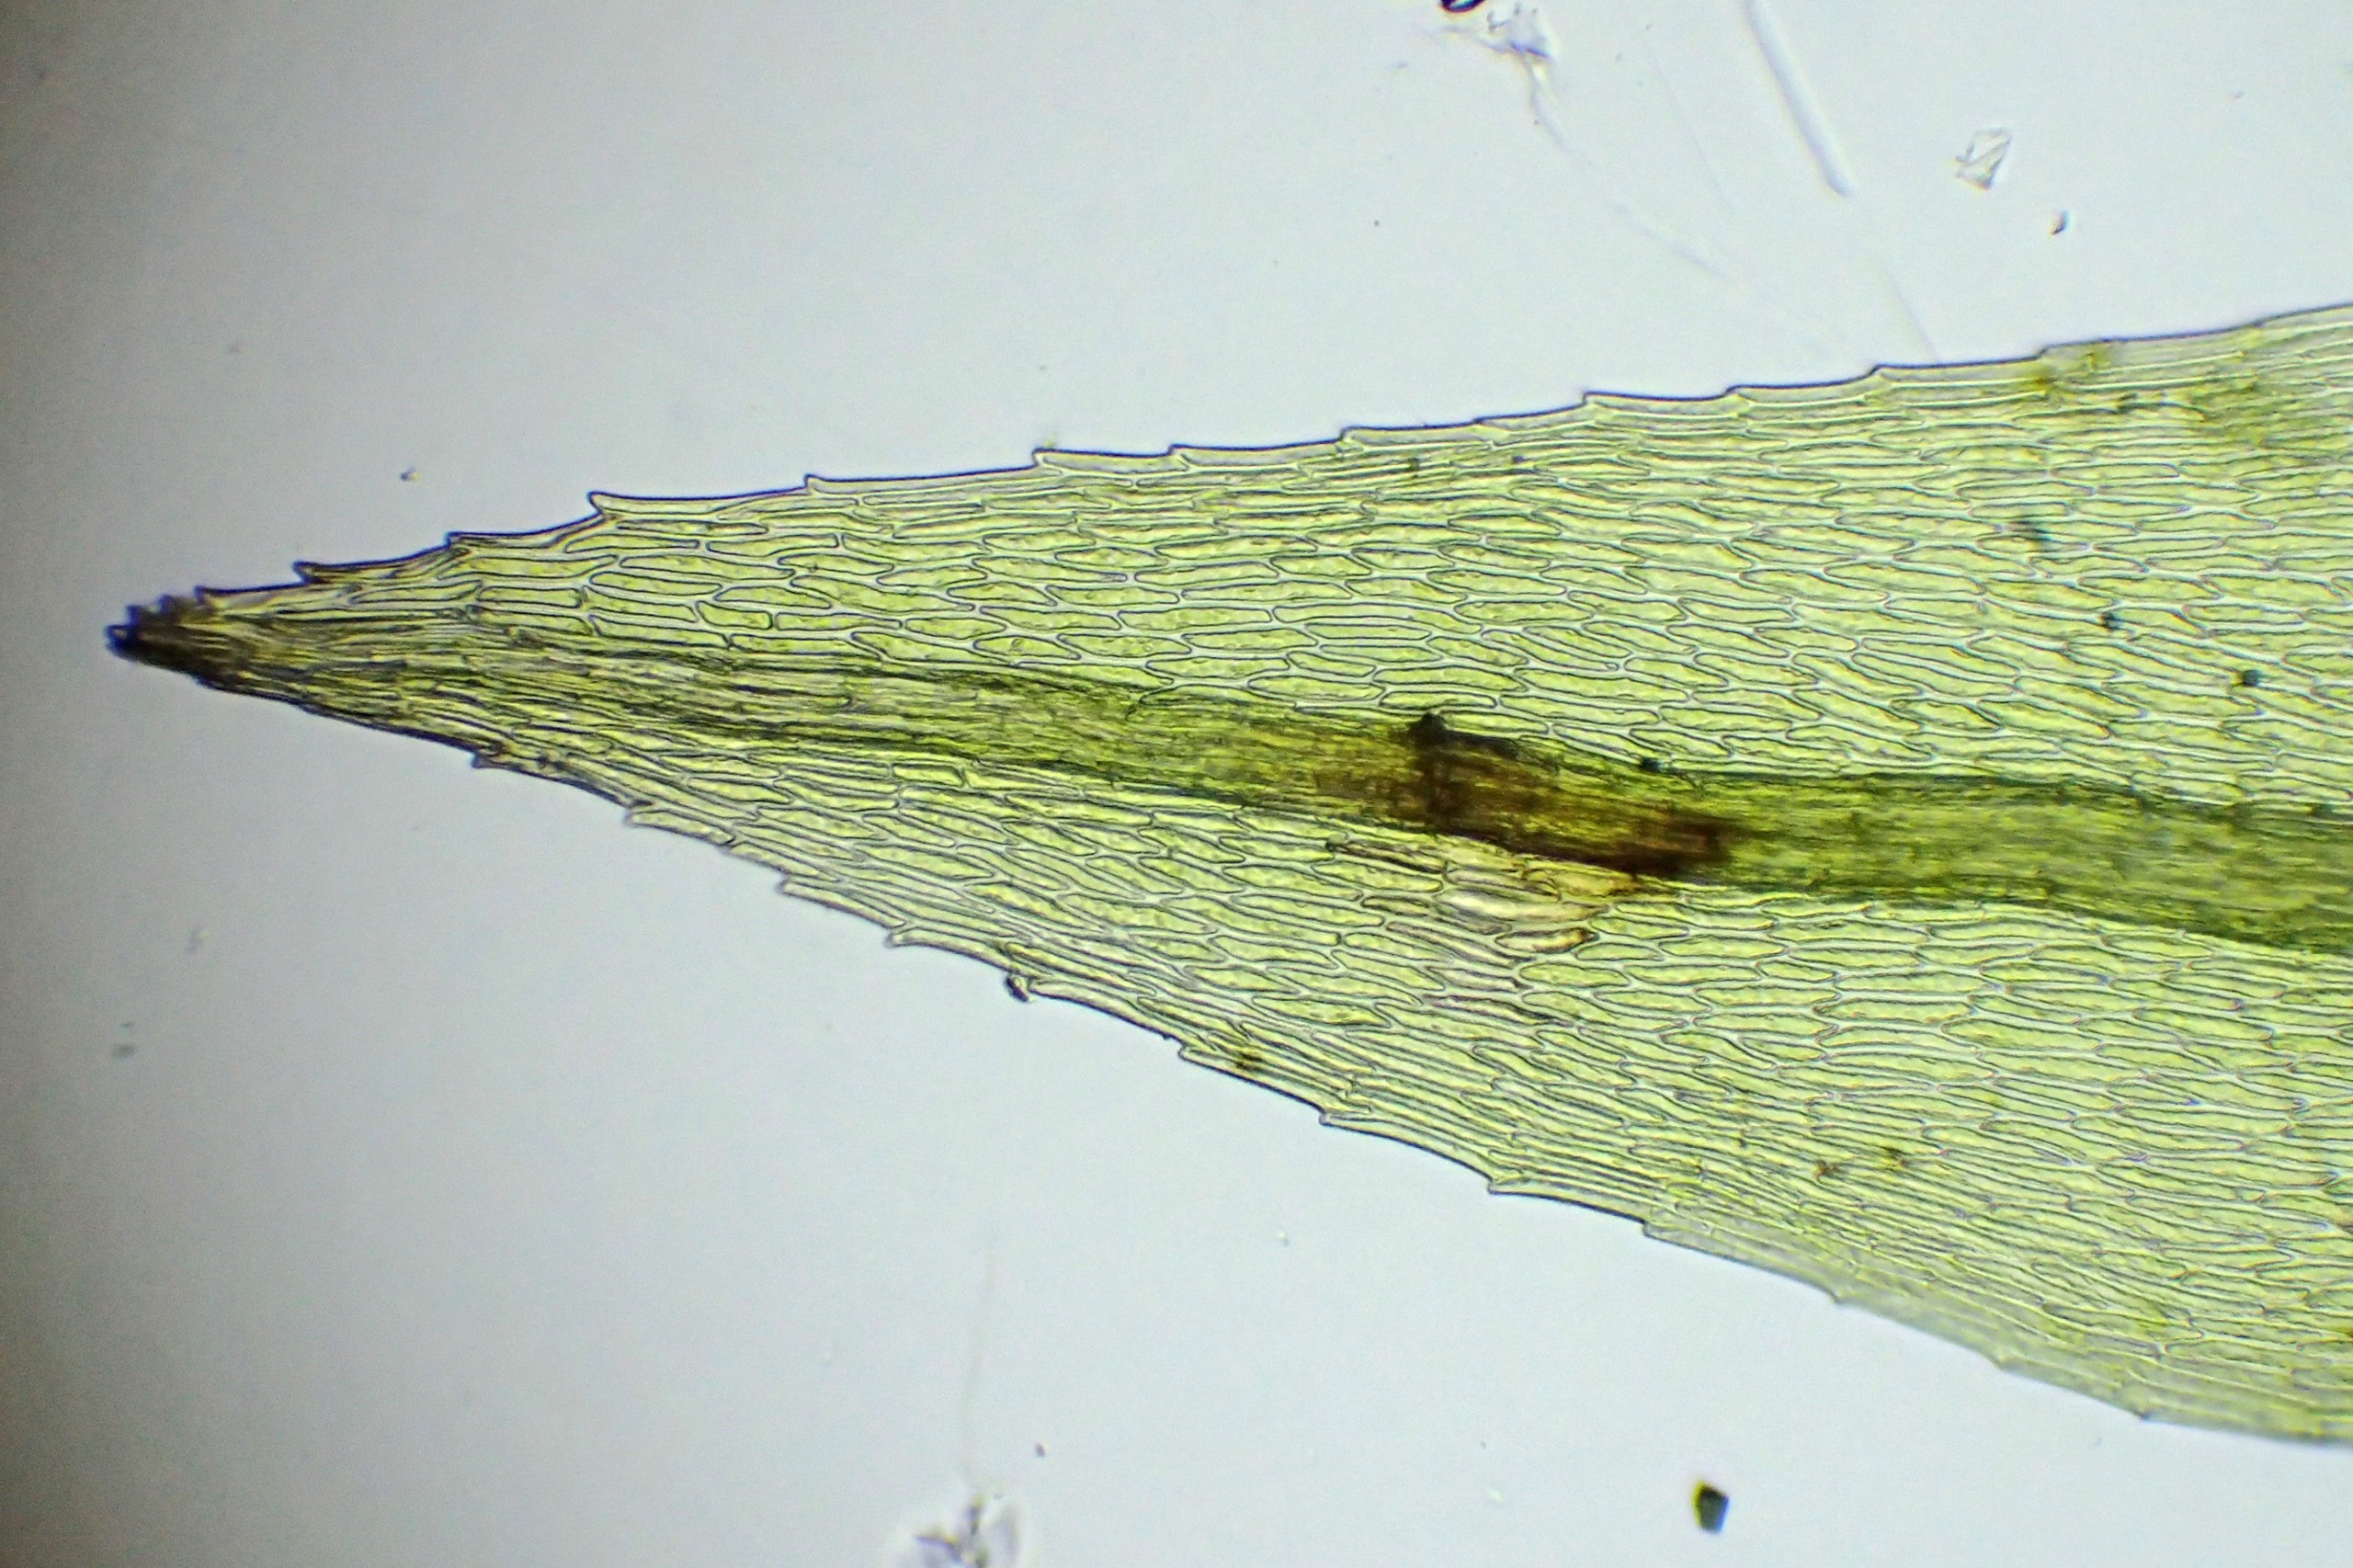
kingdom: Plantae
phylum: Bryophyta
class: Bryopsida
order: Bryales
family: Mniaceae
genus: Pohlia
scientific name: Pohlia nutans
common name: Almindelig nikkemos
